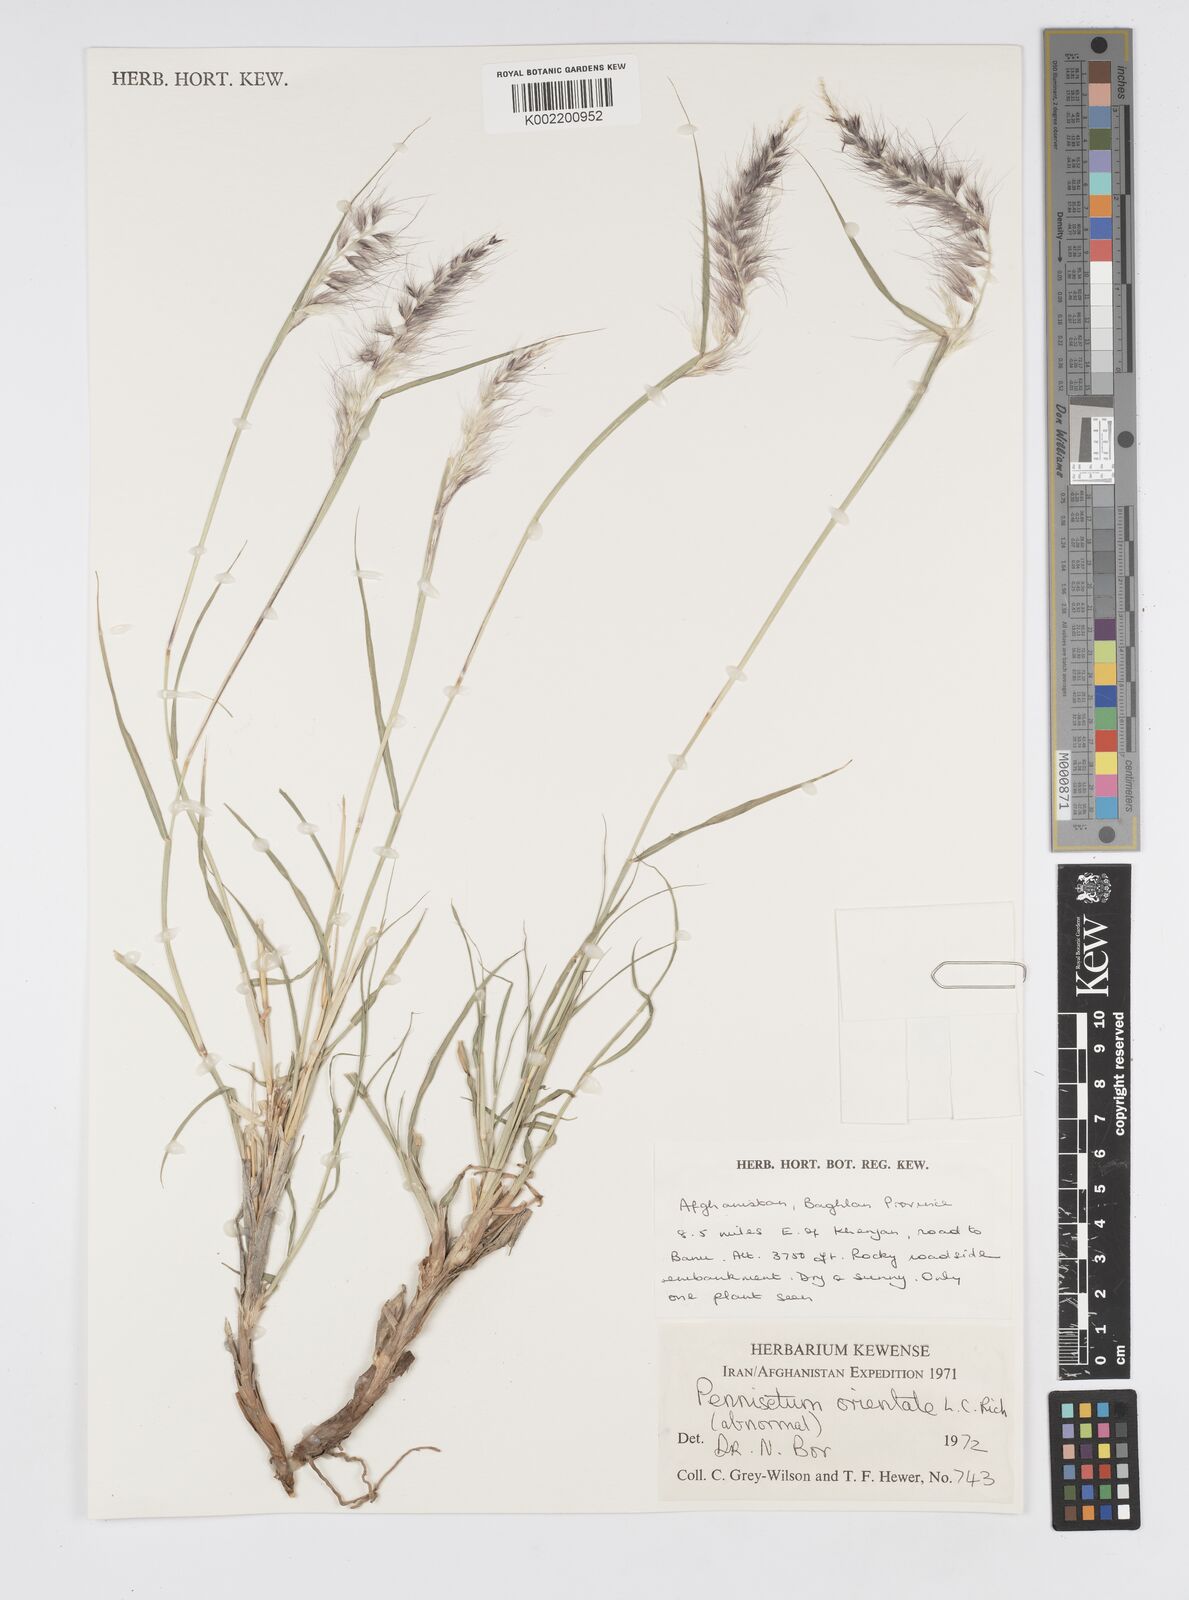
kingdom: Plantae
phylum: Tracheophyta
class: Liliopsida
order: Poales
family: Poaceae
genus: Cenchrus
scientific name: Cenchrus orientalis
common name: Oriental fountain grass
